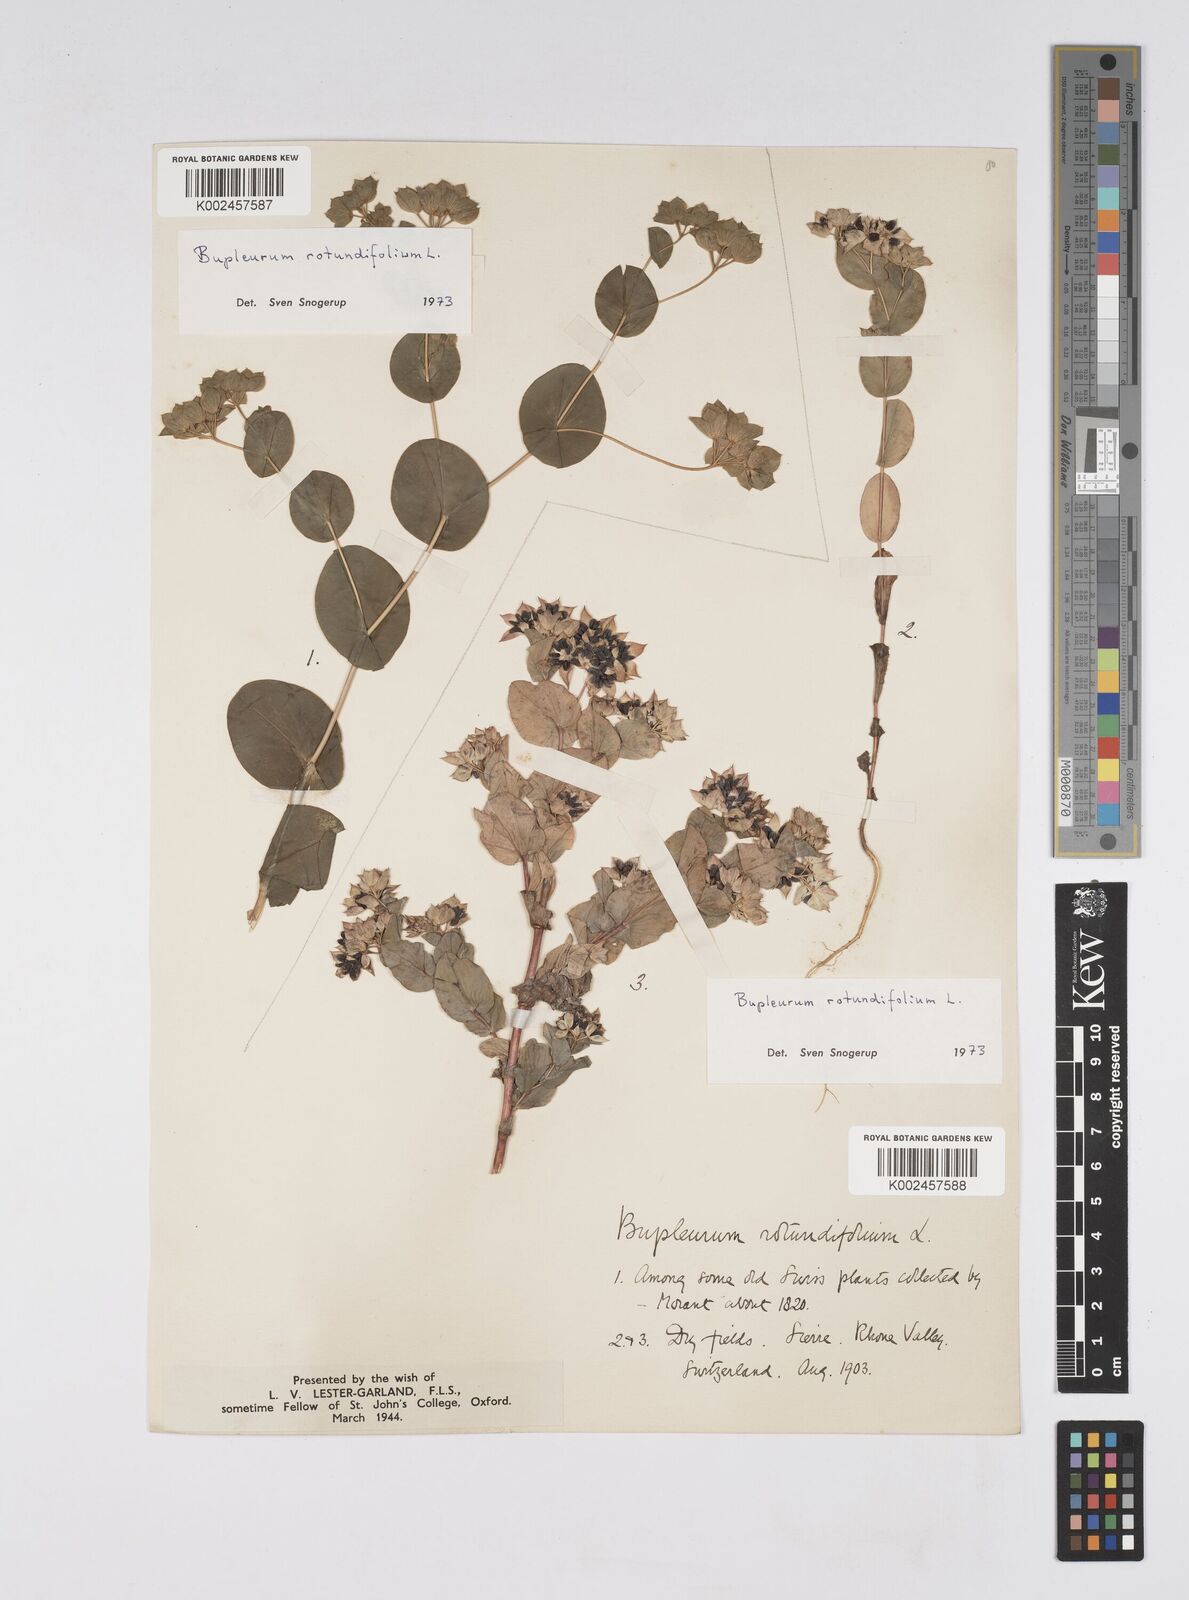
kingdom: Plantae
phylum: Tracheophyta
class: Magnoliopsida
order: Apiales
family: Apiaceae
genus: Bupleurum
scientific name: Bupleurum rotundifolium
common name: Thorow-wax
